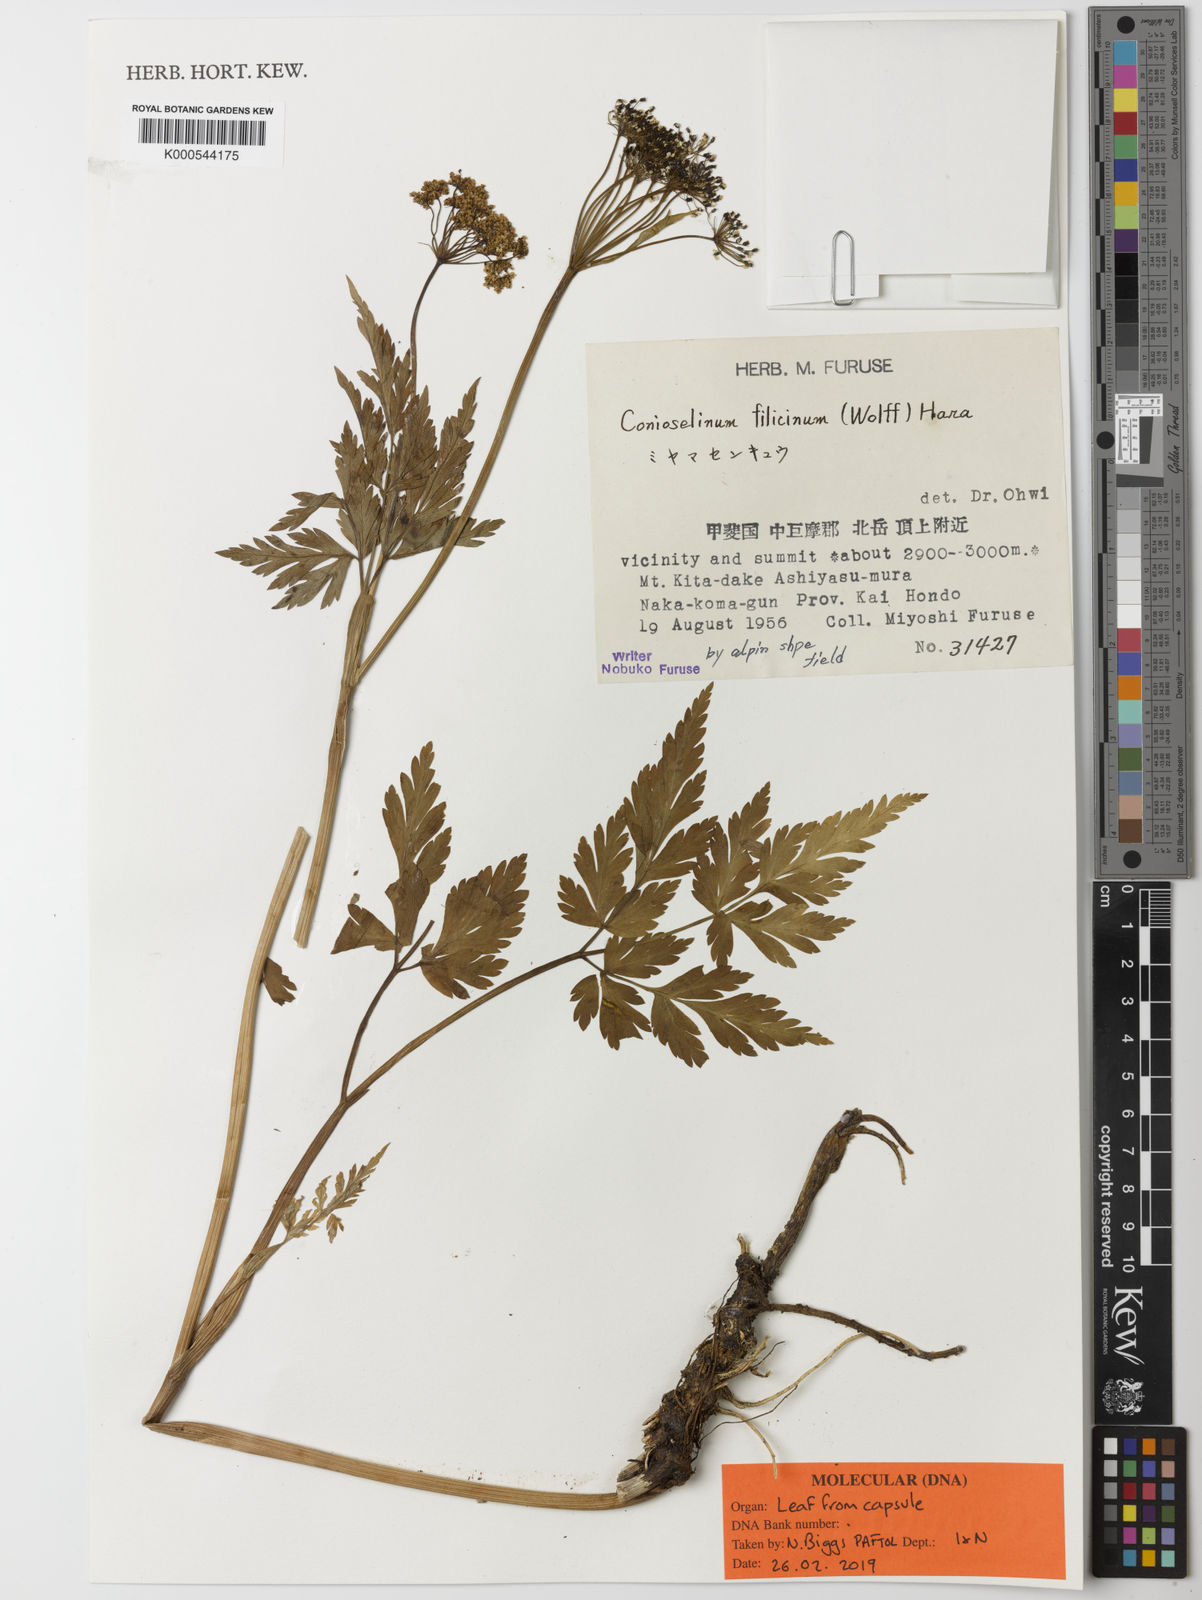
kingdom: Plantae
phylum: Tracheophyta
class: Magnoliopsida
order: Apiales
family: Apiaceae
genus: Kreidion
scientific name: Kreidion chinensis
